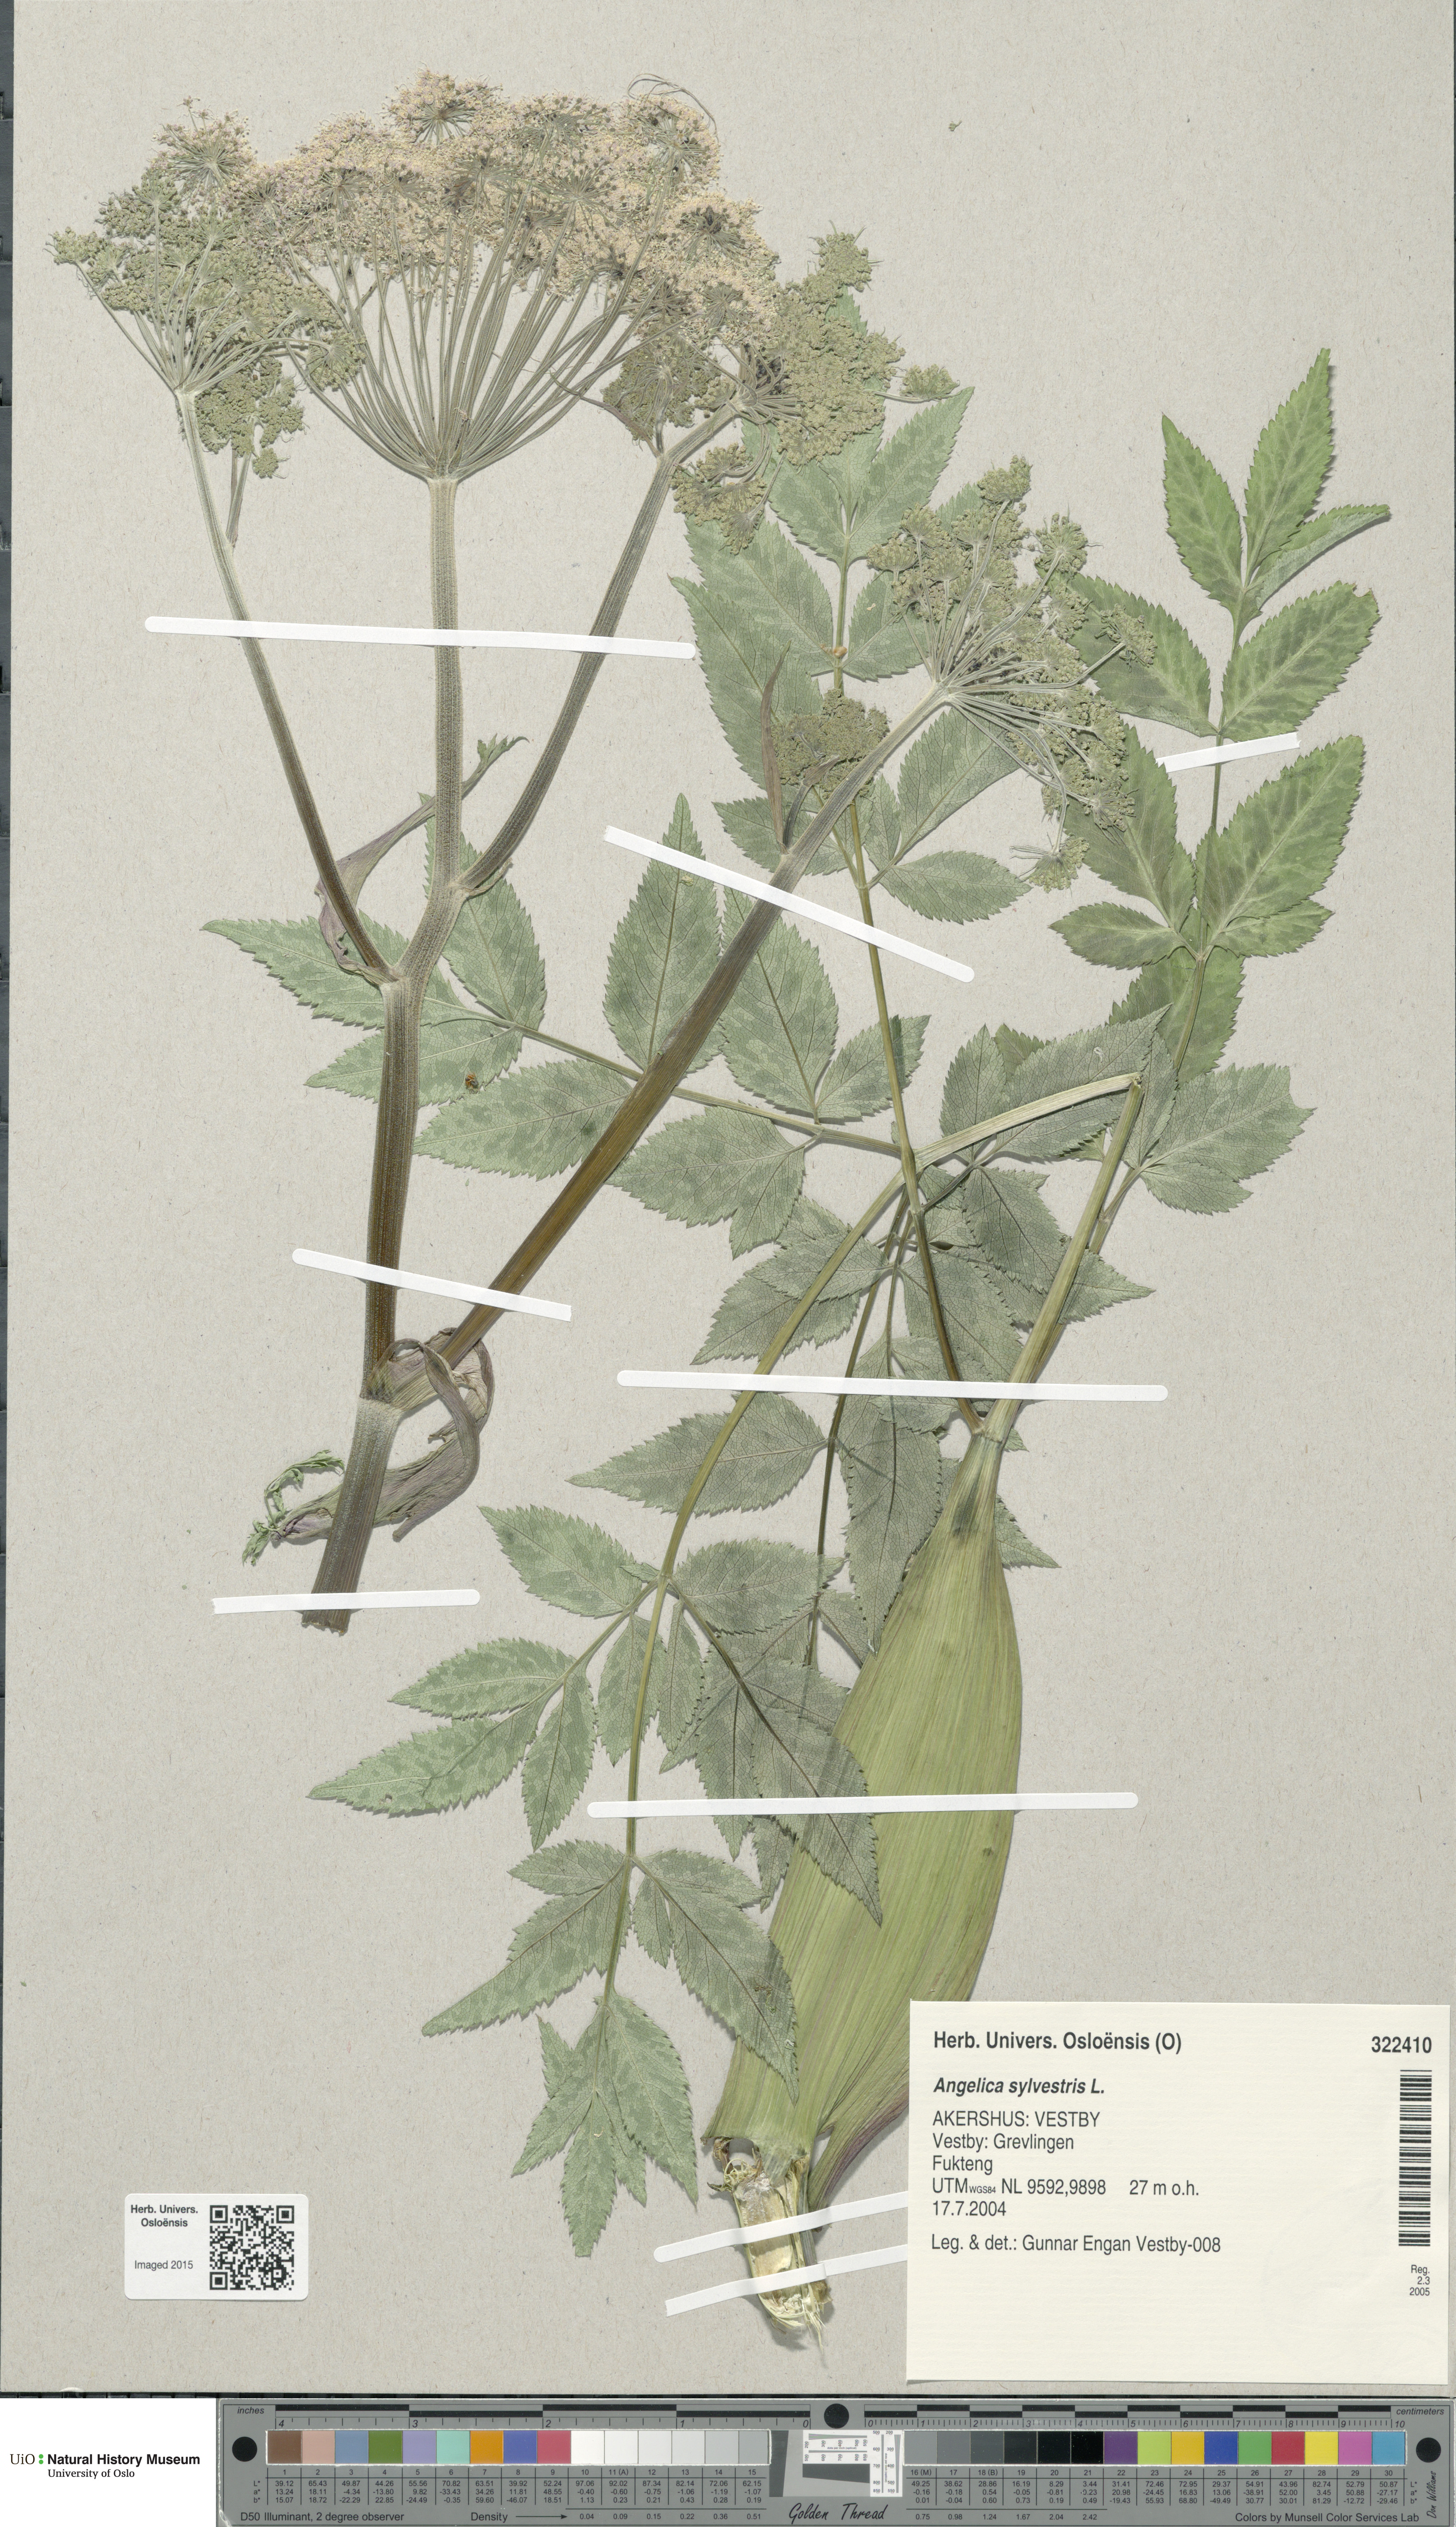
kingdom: Plantae
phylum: Tracheophyta
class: Magnoliopsida
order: Apiales
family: Apiaceae
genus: Angelica
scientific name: Angelica sylvestris
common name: Wild angelica
